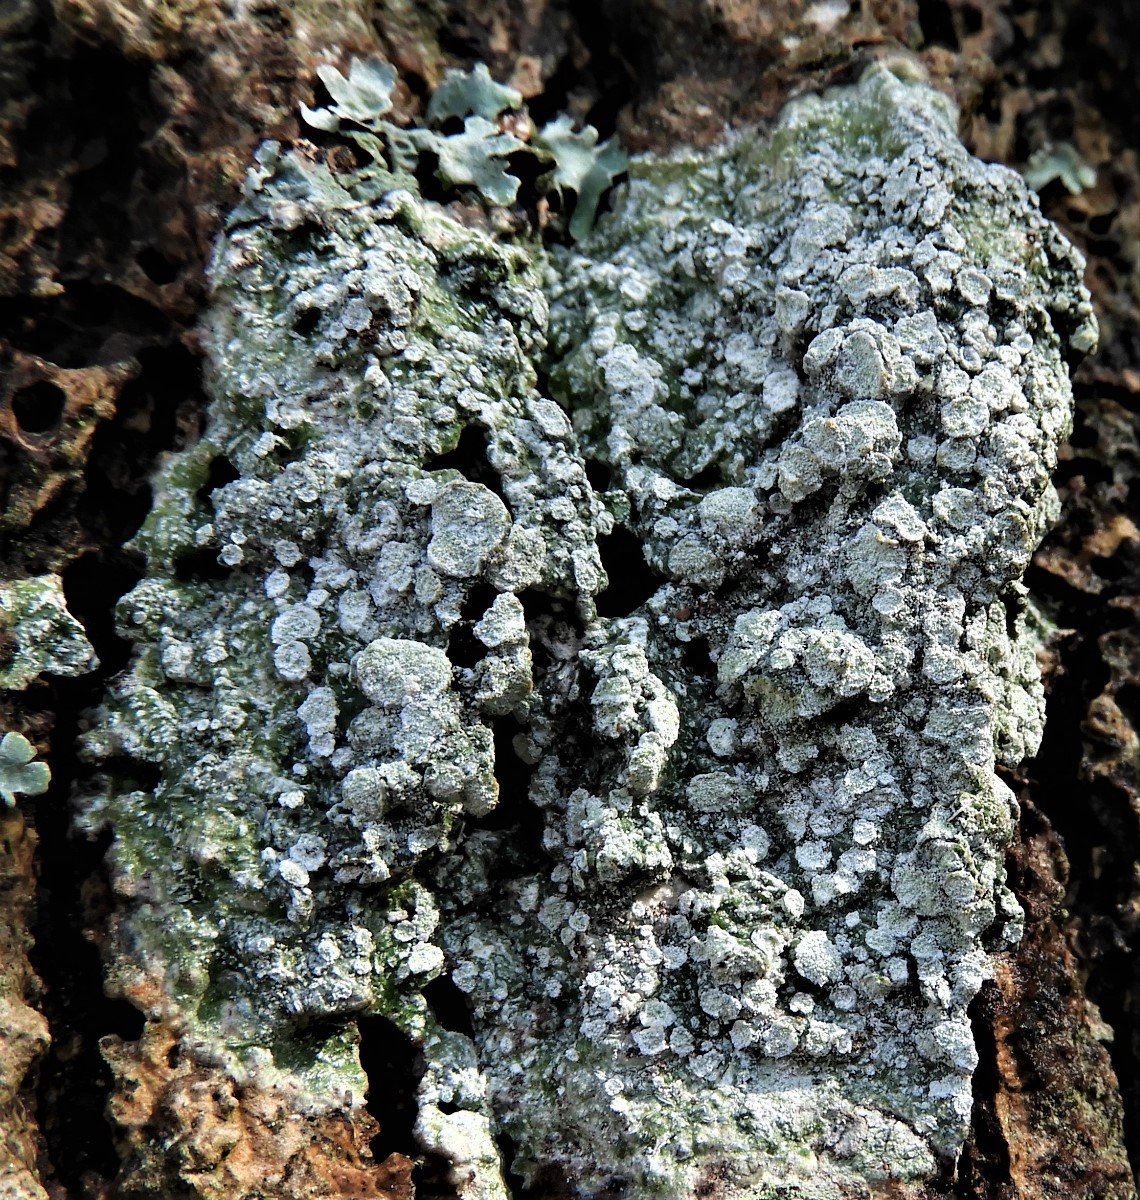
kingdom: Fungi
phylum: Ascomycota
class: Lecanoromycetes
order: Pertusariales
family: Pertusariaceae
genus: Lepra
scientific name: Lepra albescens
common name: hvidmelet prikvortelav
